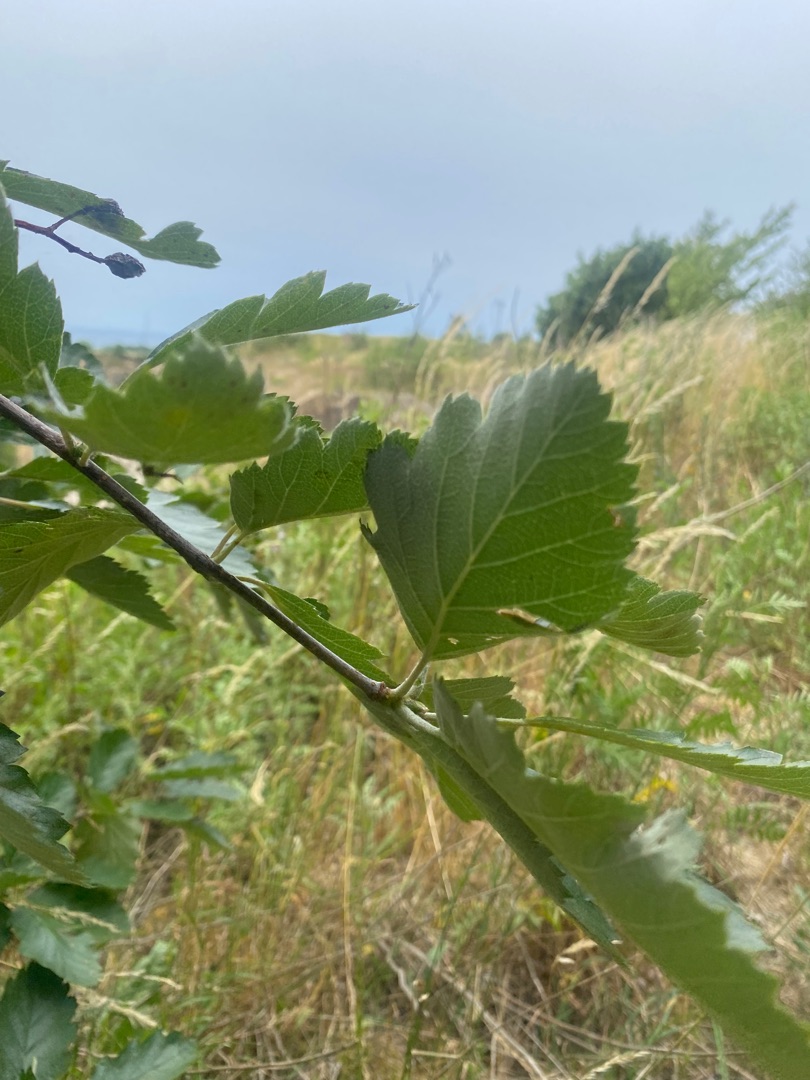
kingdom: Plantae
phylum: Tracheophyta
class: Magnoliopsida
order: Rosales
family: Rosaceae
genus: Scandosorbus
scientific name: Scandosorbus intermedia
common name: Selje-røn
